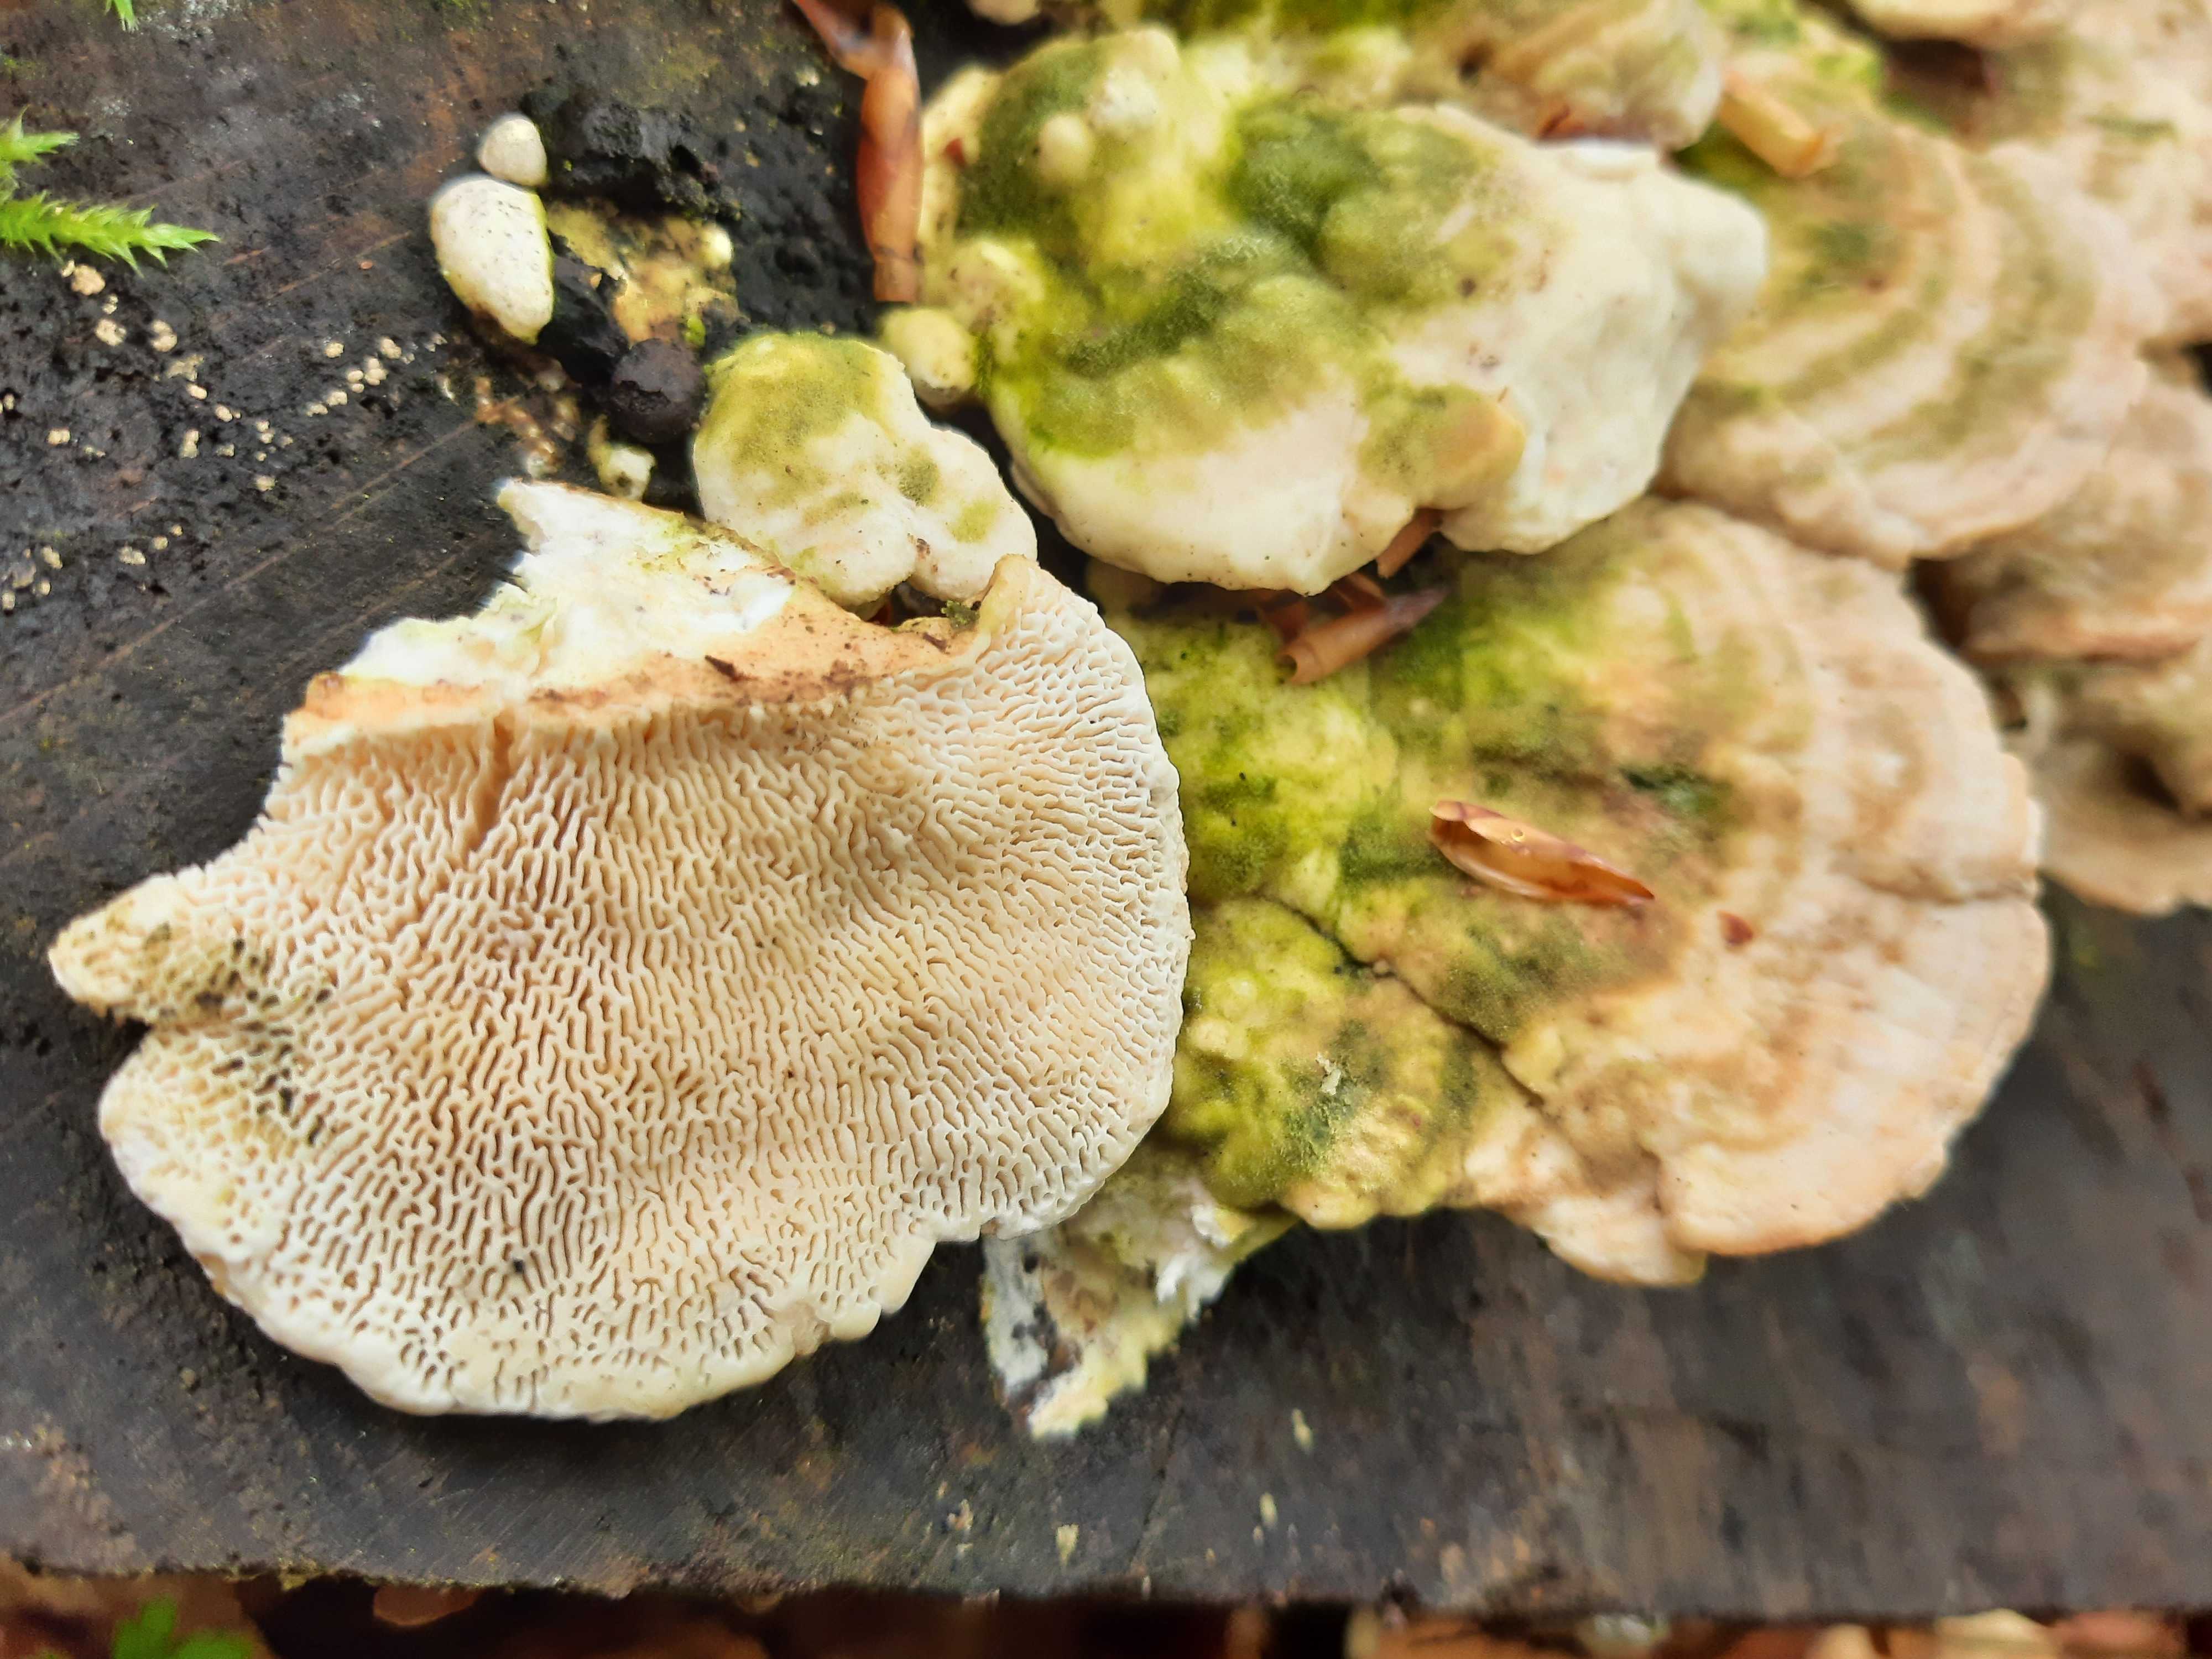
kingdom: Fungi
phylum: Basidiomycota
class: Agaricomycetes
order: Polyporales
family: Polyporaceae
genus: Trametes
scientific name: Trametes gibbosa
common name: puklet læderporesvamp
